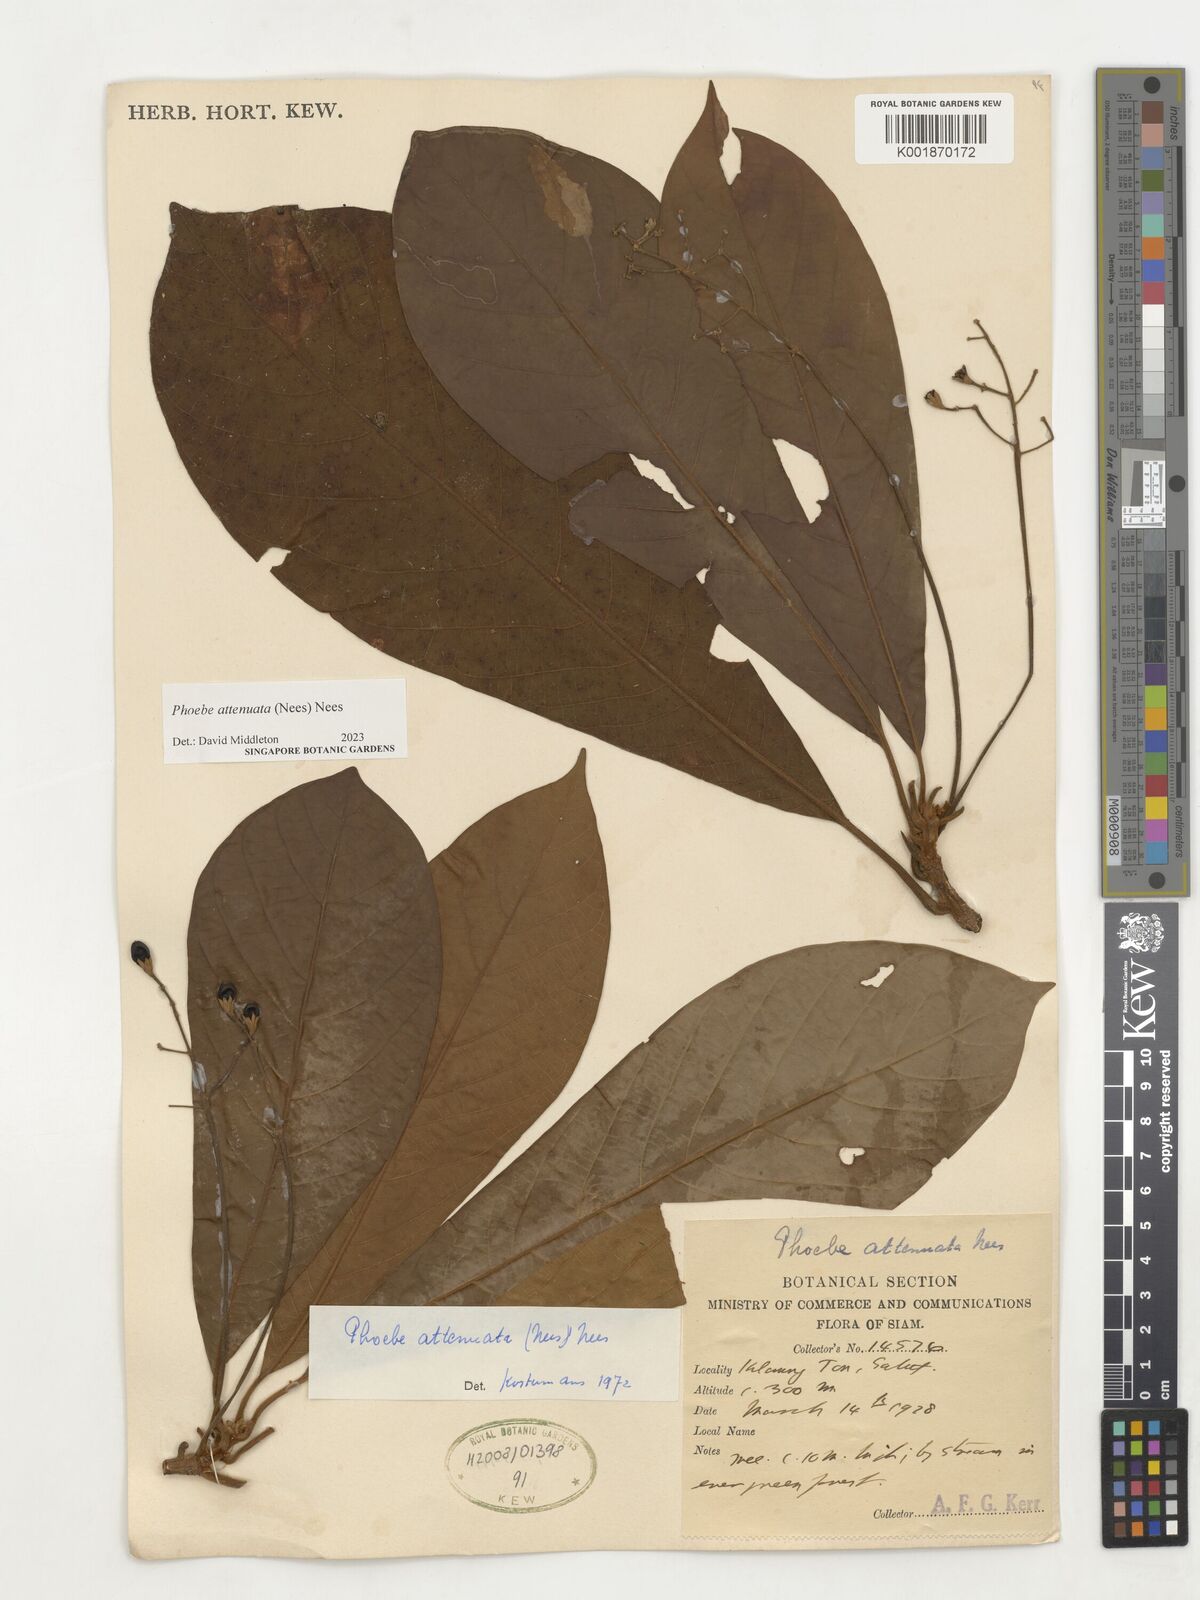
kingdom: Plantae
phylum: Tracheophyta
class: Magnoliopsida
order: Laurales
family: Lauraceae
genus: Phoebe
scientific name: Phoebe attenuata
